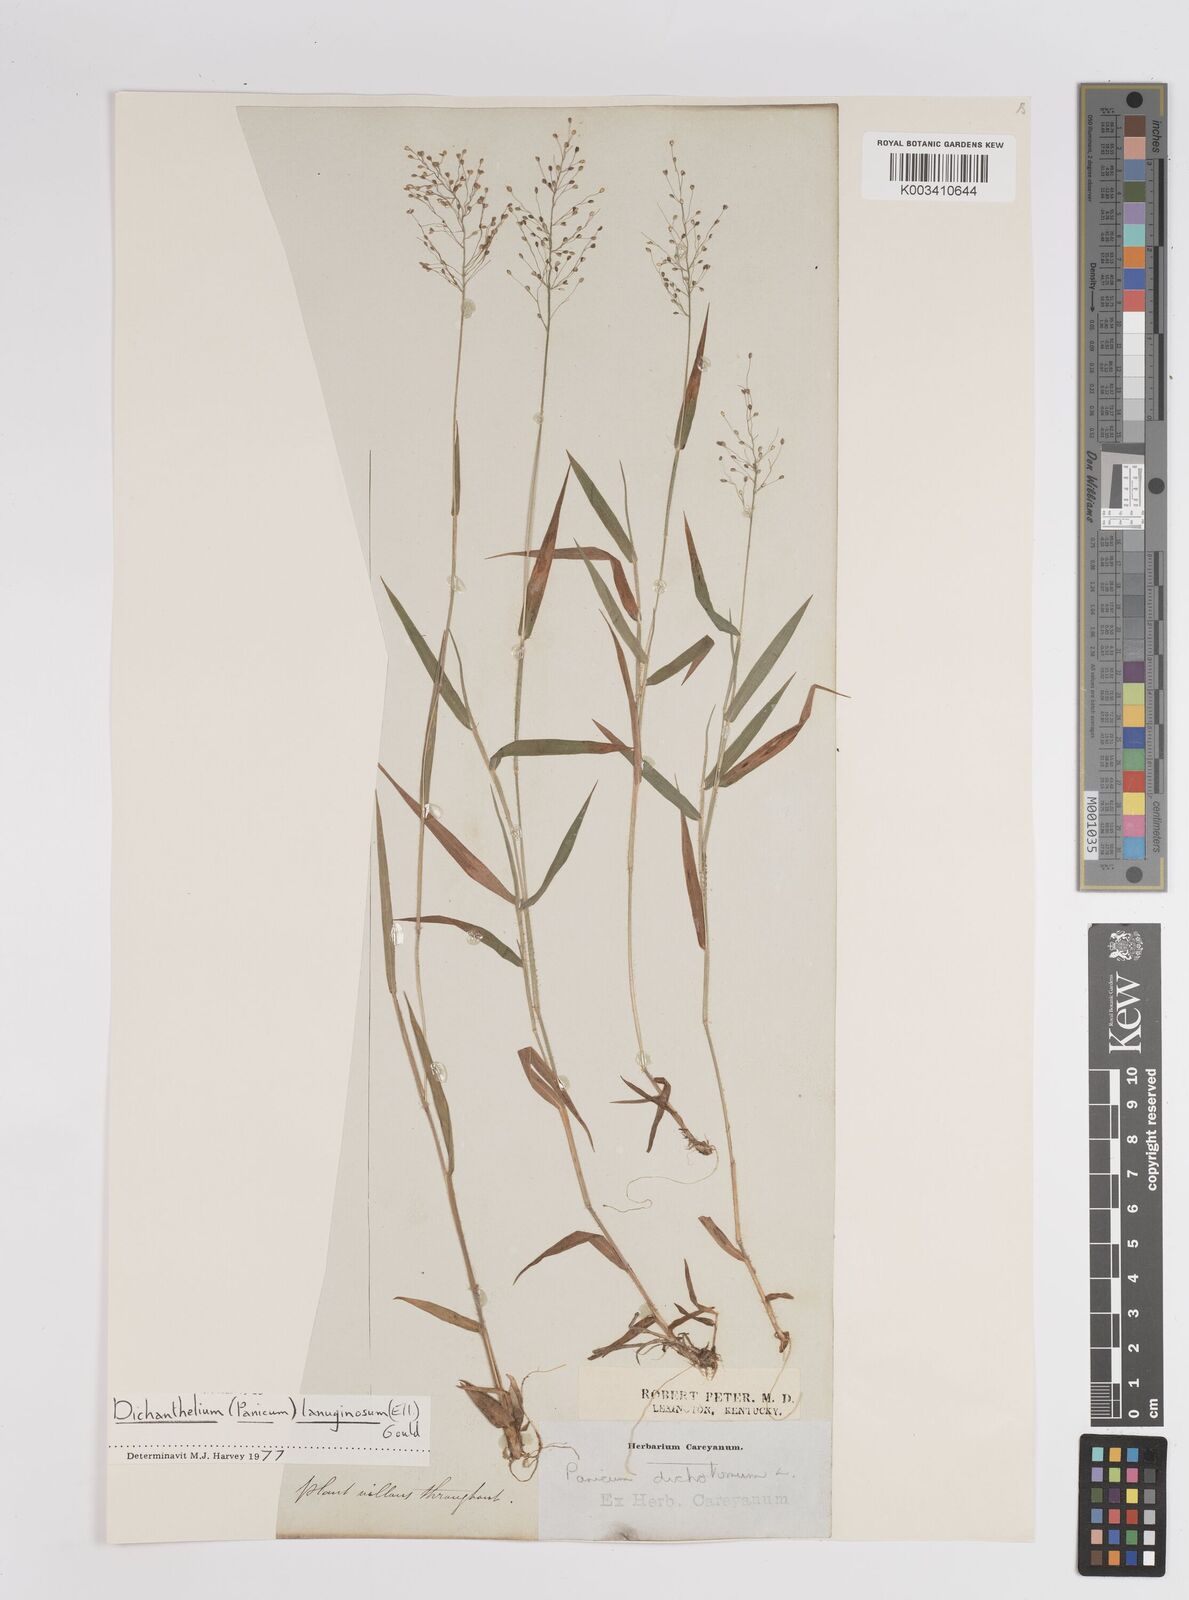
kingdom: Plantae
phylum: Tracheophyta
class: Liliopsida
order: Poales
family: Poaceae
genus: Dichanthelium
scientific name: Dichanthelium lanuginosum
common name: Woolly panicgrass
